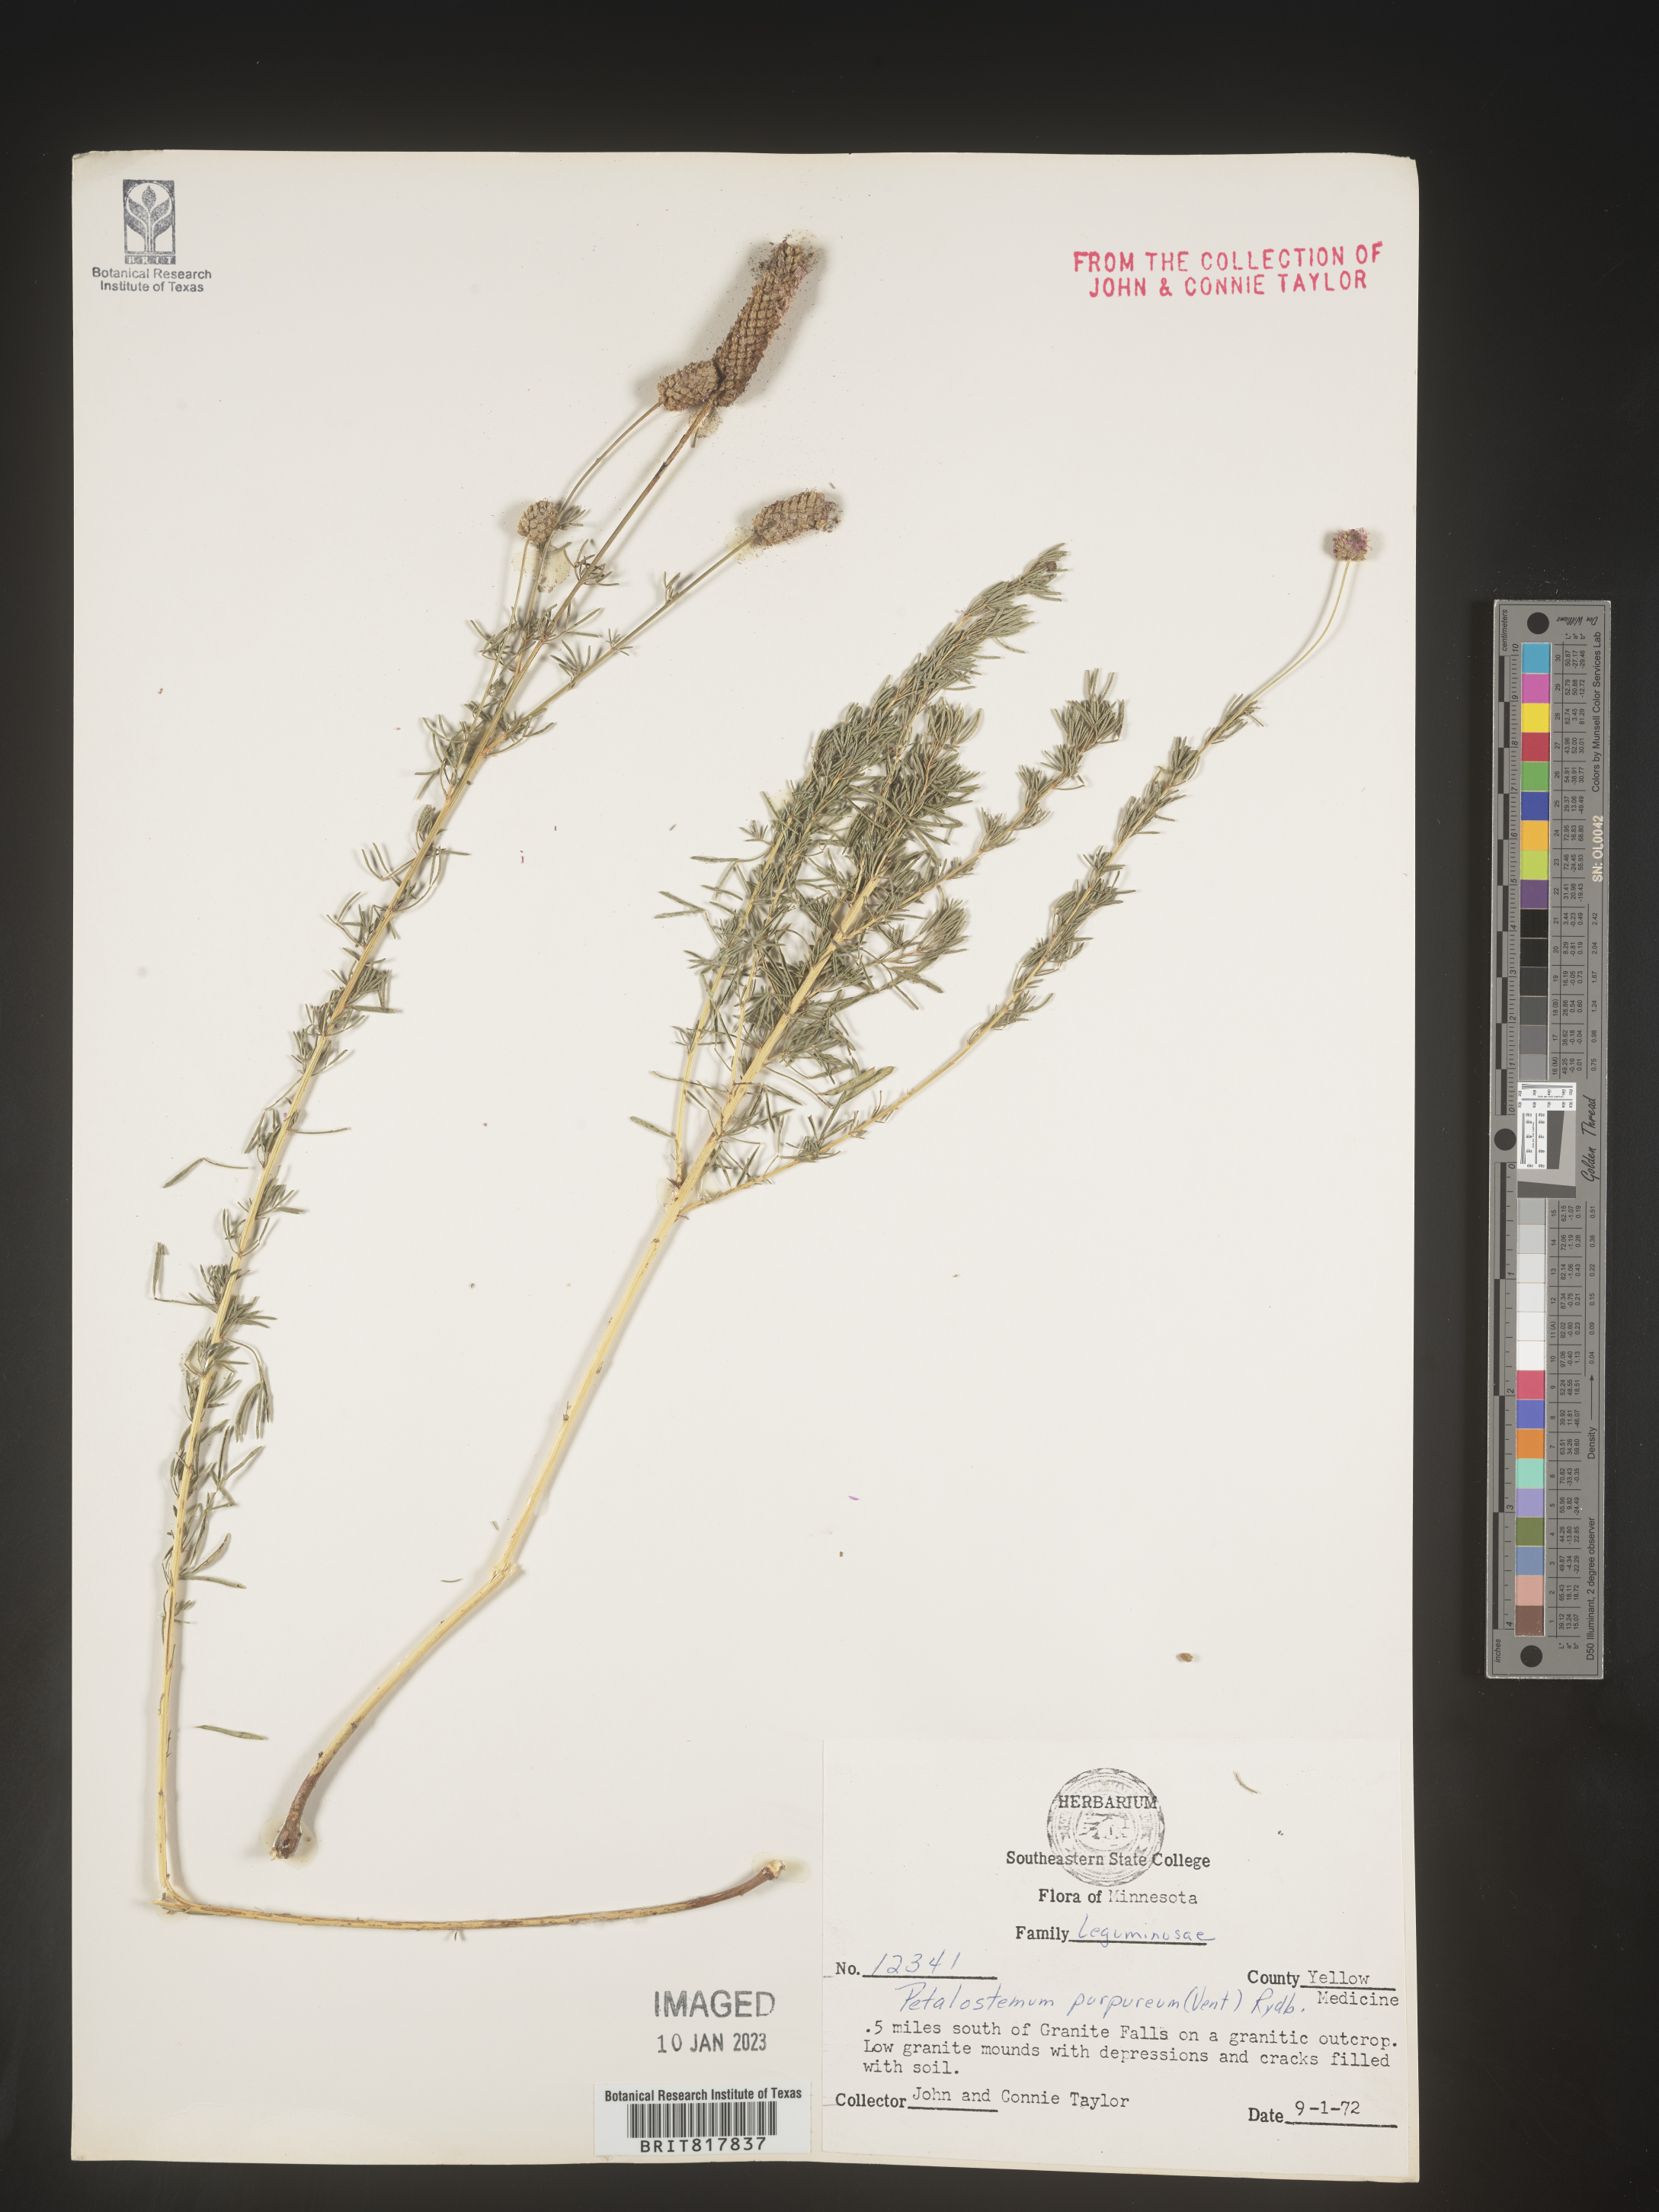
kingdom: Plantae
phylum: Tracheophyta
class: Magnoliopsida
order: Fabales
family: Fabaceae
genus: Dalea
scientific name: Dalea purpurea
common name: Purple prairie-clover
